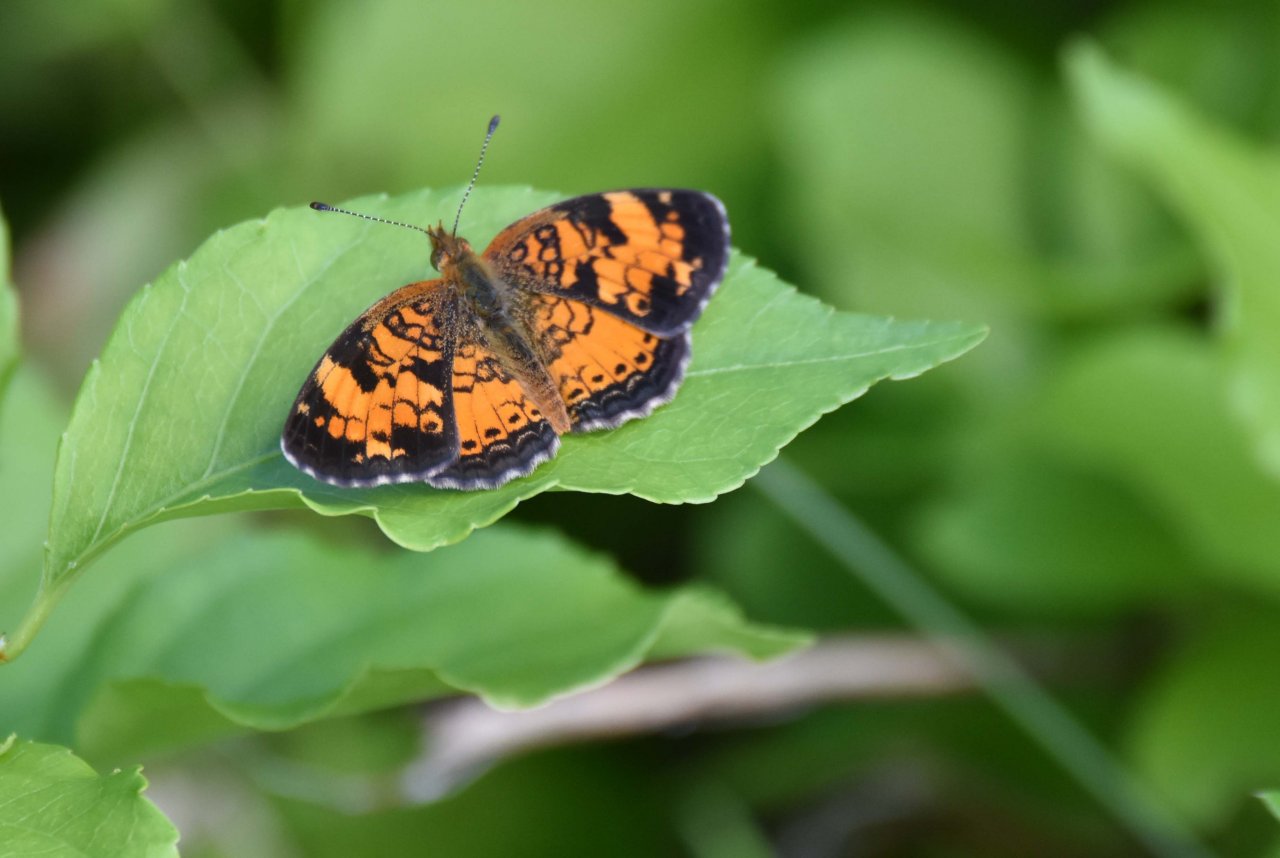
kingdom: Animalia
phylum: Arthropoda
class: Insecta
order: Lepidoptera
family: Nymphalidae
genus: Phyciodes
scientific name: Phyciodes tharos
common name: Pearl Crescent
